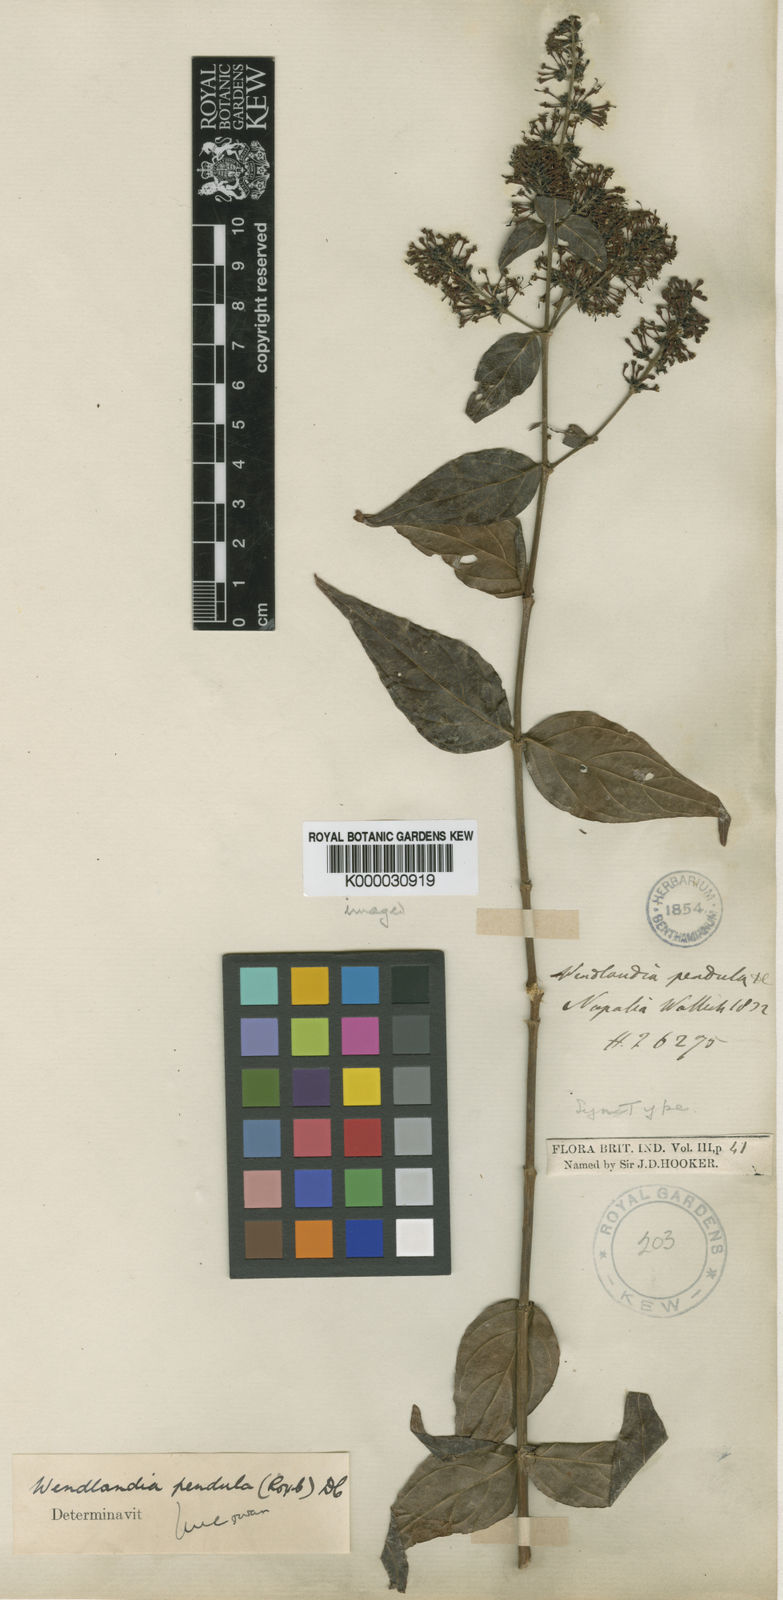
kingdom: Plantae
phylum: Tracheophyta
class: Magnoliopsida
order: Gentianales
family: Rubiaceae
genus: Wendlandia
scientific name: Wendlandia pendula
